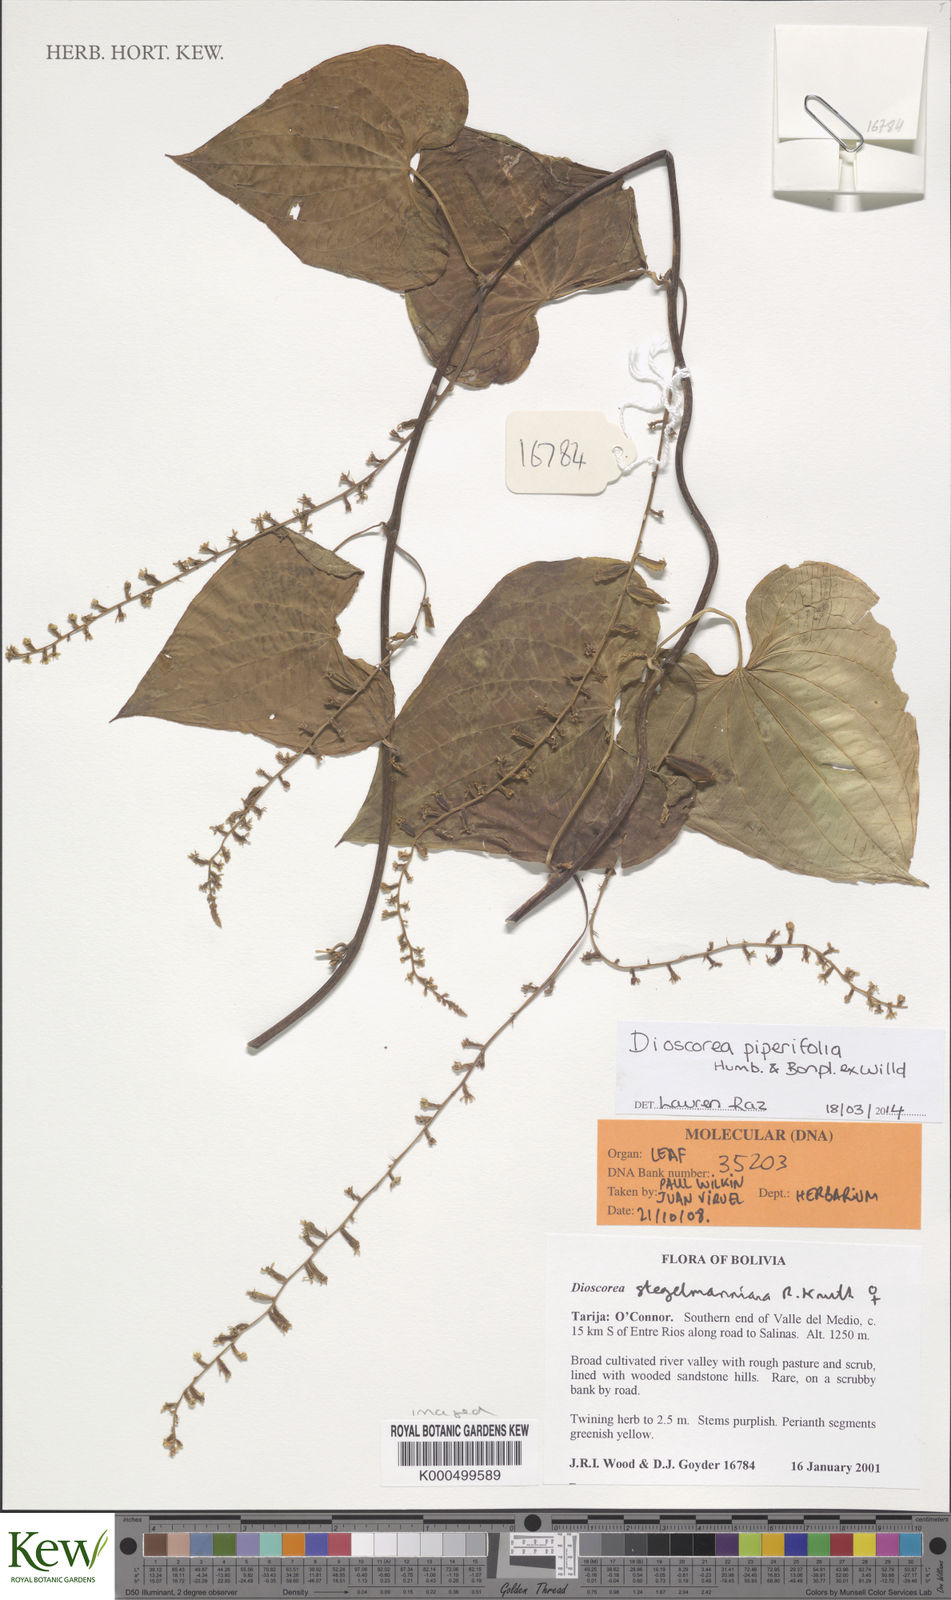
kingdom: Plantae
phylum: Tracheophyta
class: Liliopsida
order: Dioscoreales
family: Dioscoreaceae
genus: Dioscorea
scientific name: Dioscorea piperifolia
